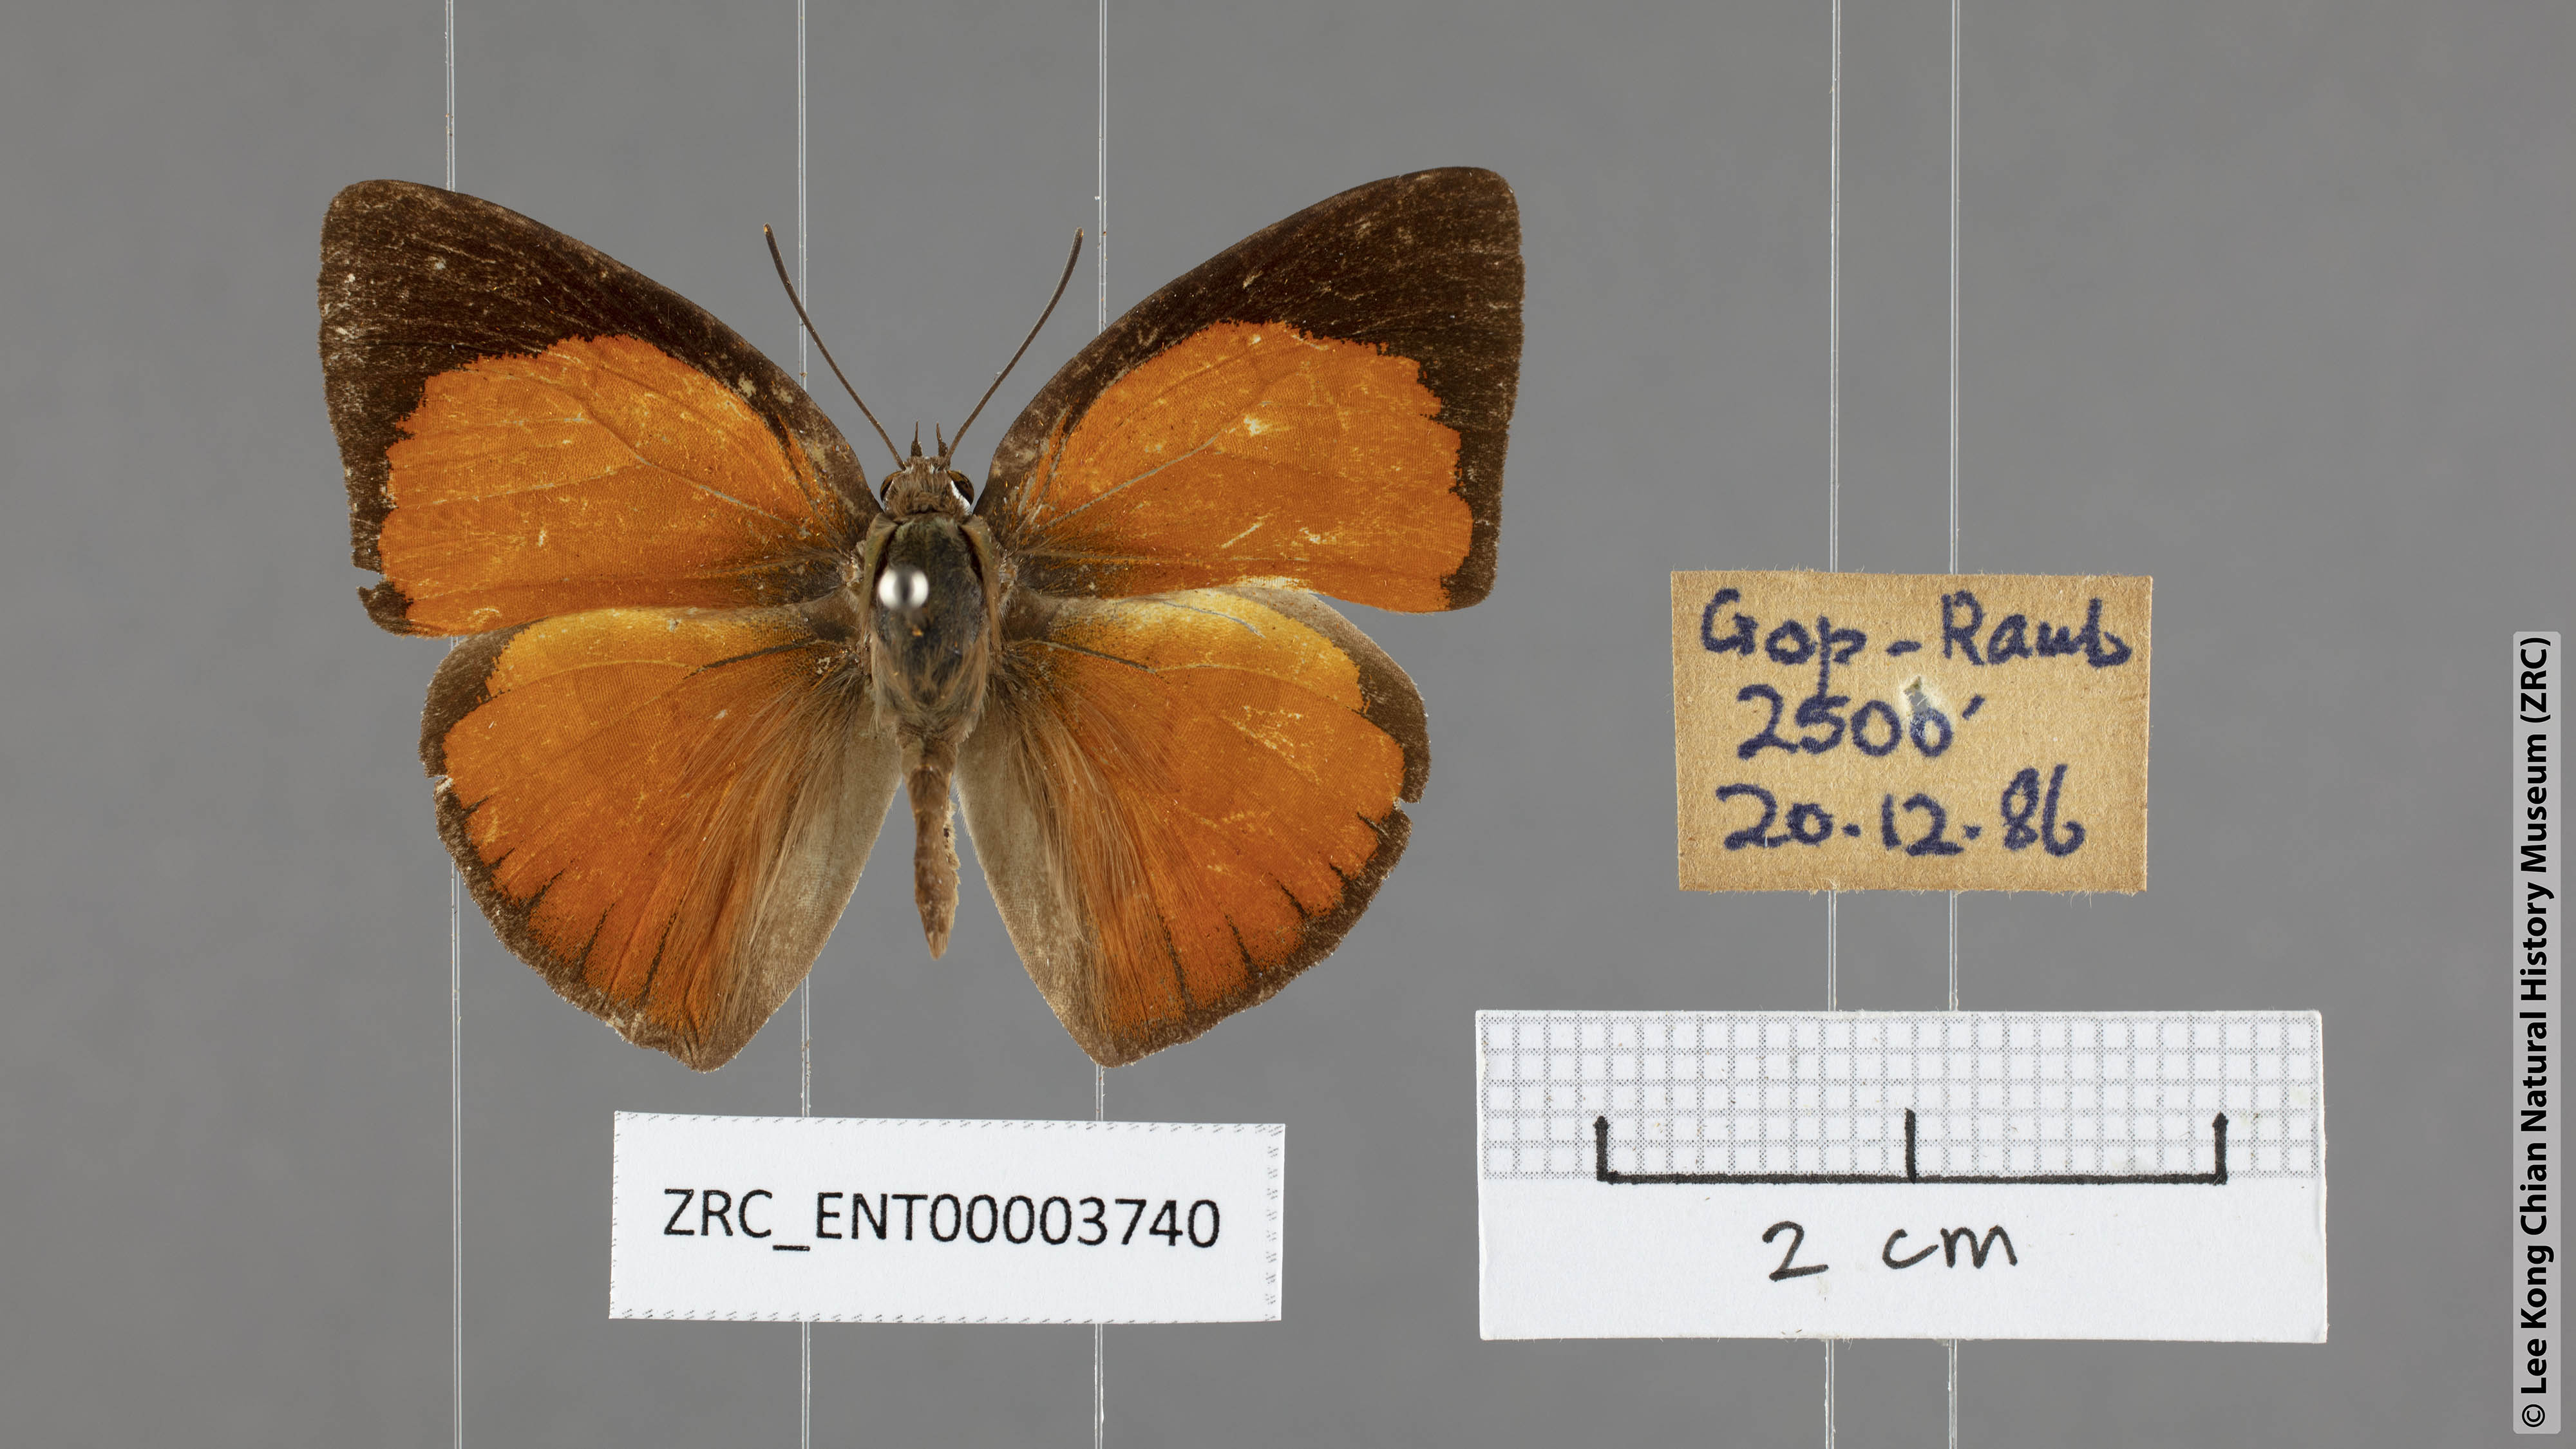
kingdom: Animalia
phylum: Arthropoda
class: Insecta
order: Lepidoptera
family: Lycaenidae
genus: Curetis
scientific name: Curetis regula
